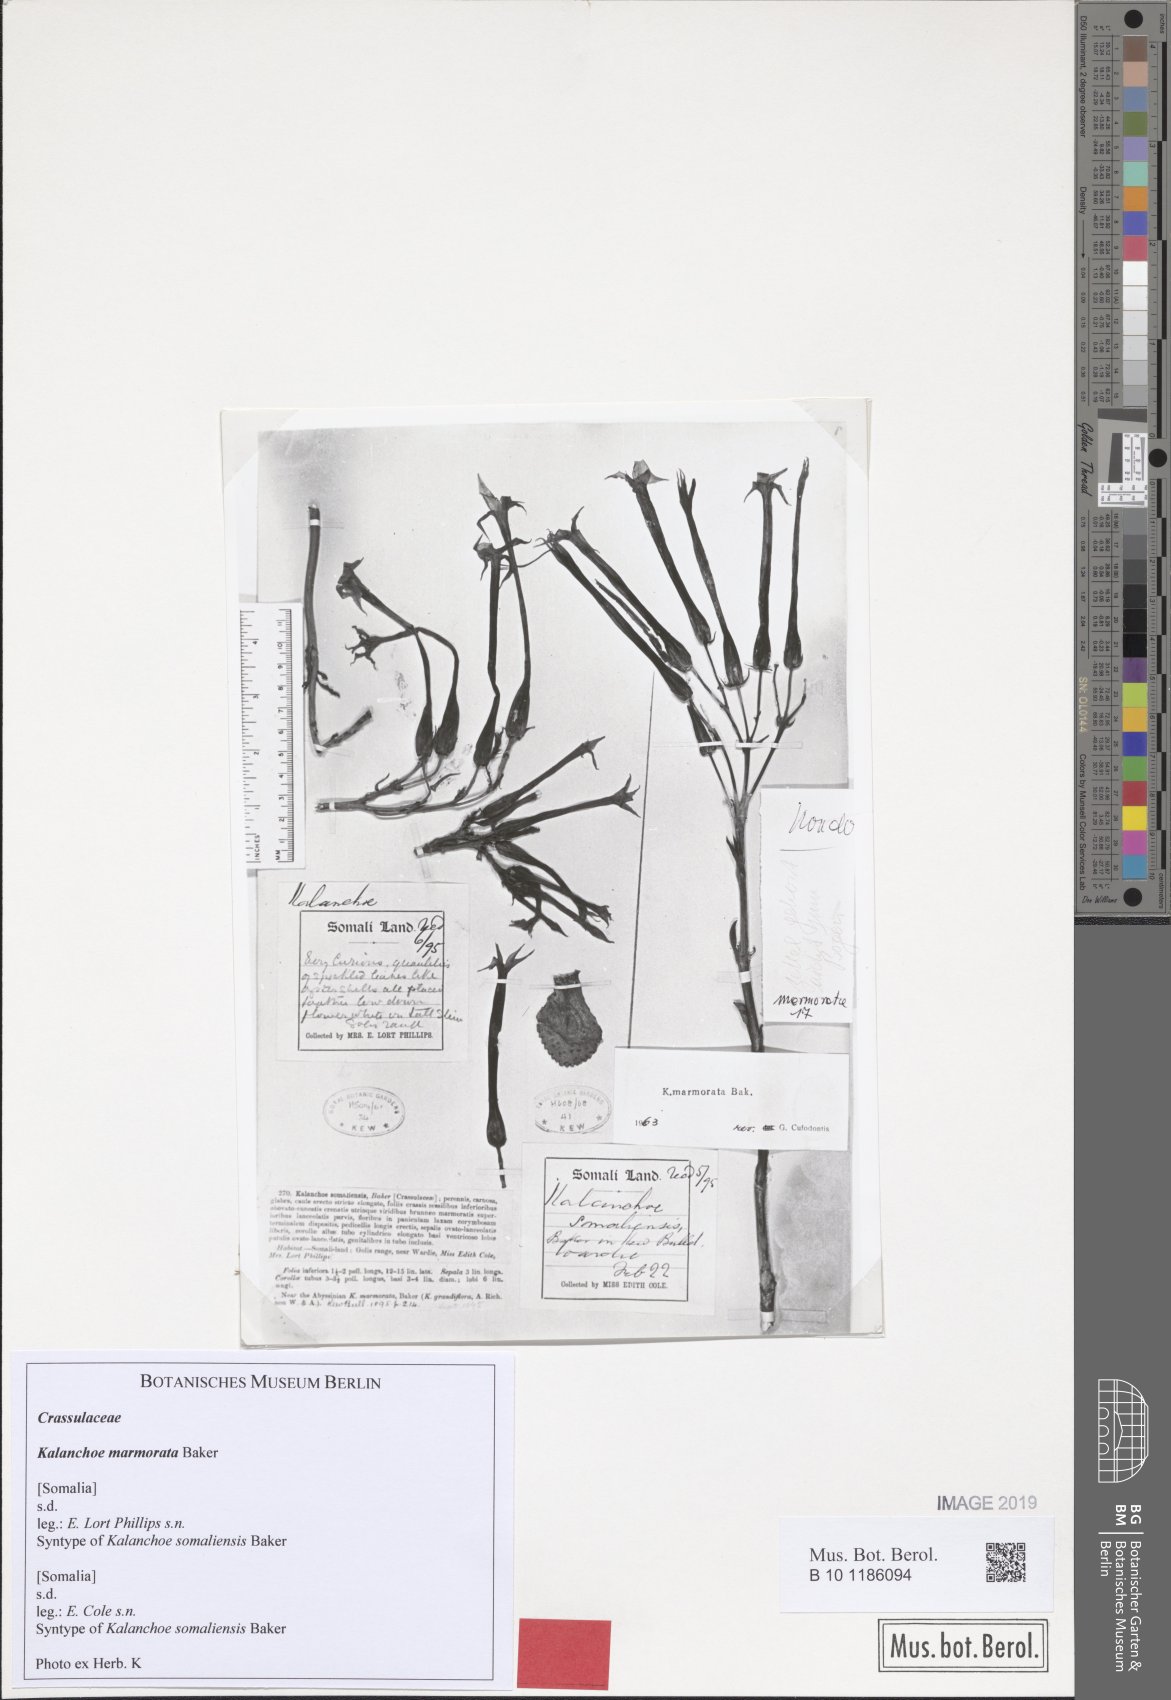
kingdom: Plantae
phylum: Tracheophyta
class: Magnoliopsida
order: Saxifragales
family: Crassulaceae
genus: Kalanchoe
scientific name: Kalanchoe marmorata
